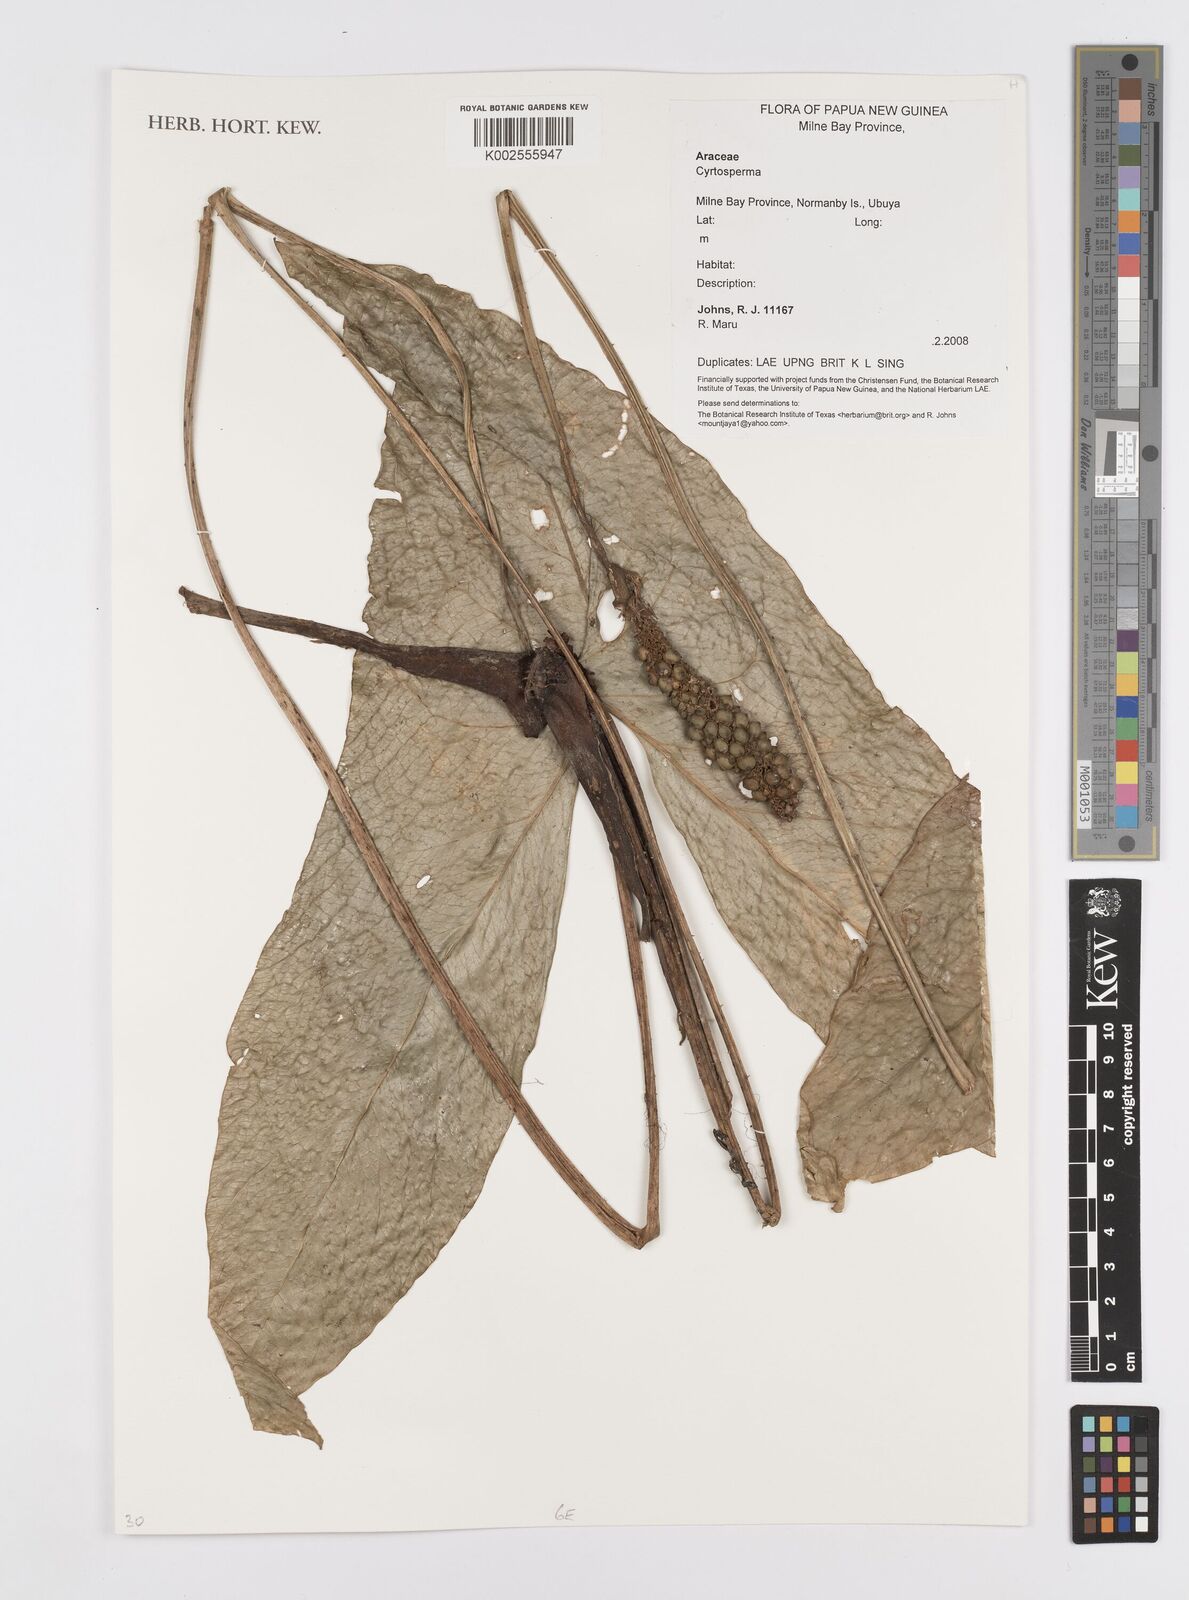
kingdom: Plantae
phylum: Tracheophyta
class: Liliopsida
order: Alismatales
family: Araceae
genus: Cyrtosperma
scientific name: Cyrtosperma
